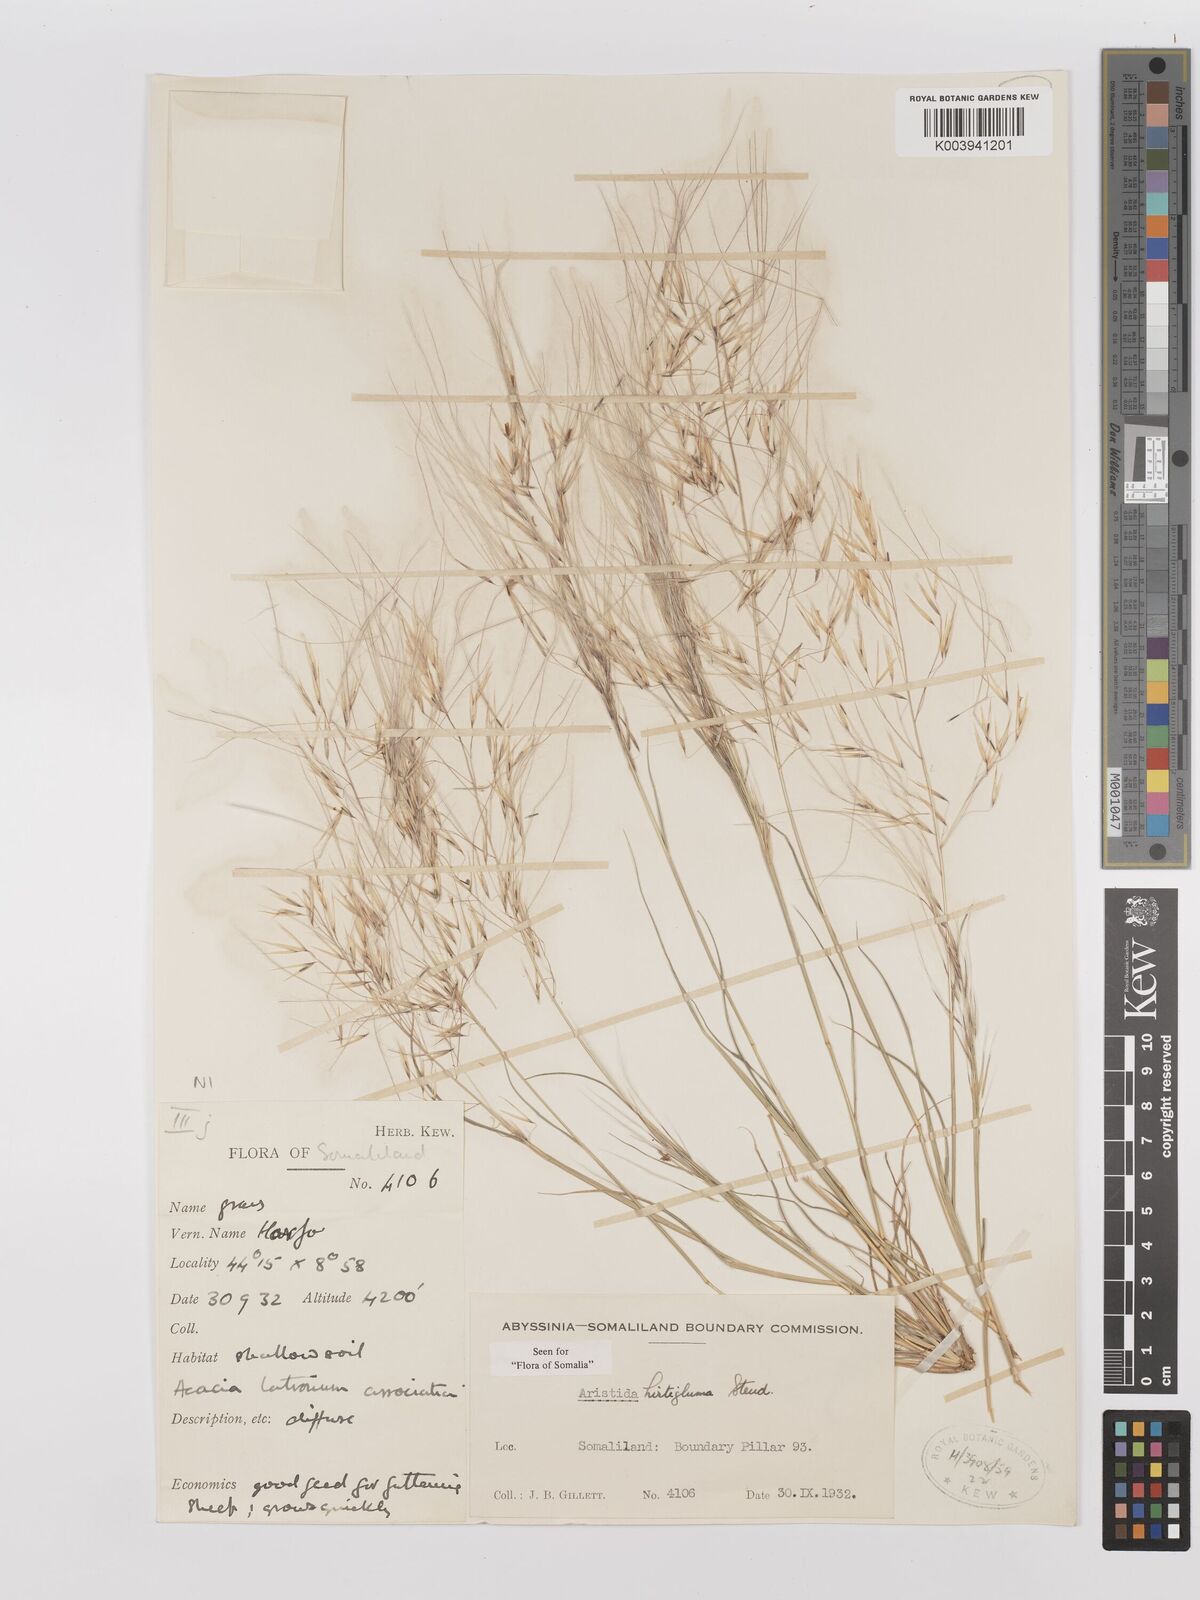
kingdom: Plantae
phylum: Tracheophyta
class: Liliopsida
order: Poales
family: Poaceae
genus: Stipagrostis
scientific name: Stipagrostis hirtigluma
